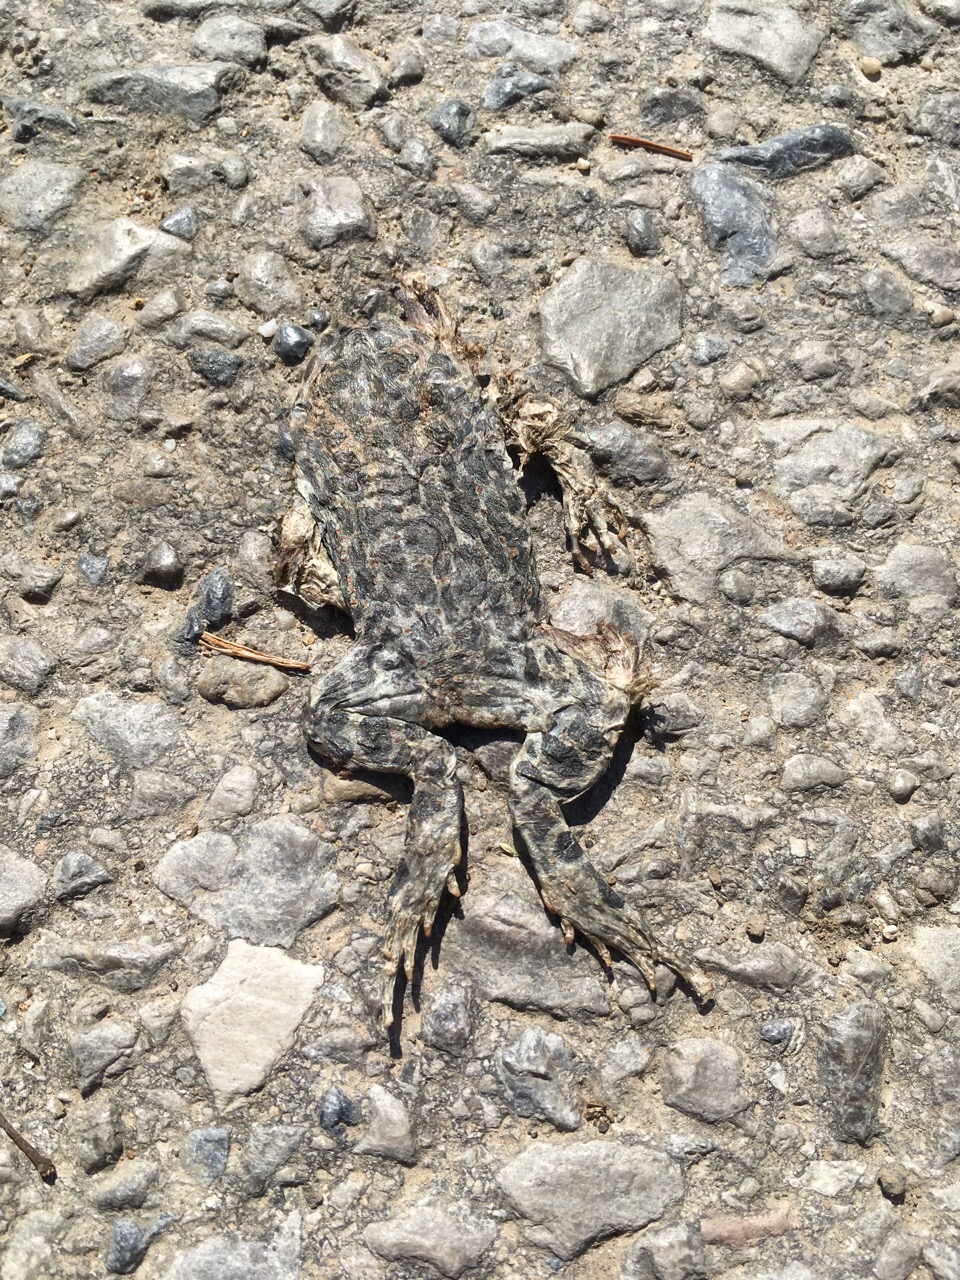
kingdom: Animalia
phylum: Chordata
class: Amphibia
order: Anura
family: Bufonidae
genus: Bufotes
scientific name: Bufotes viridis
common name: European green toad
